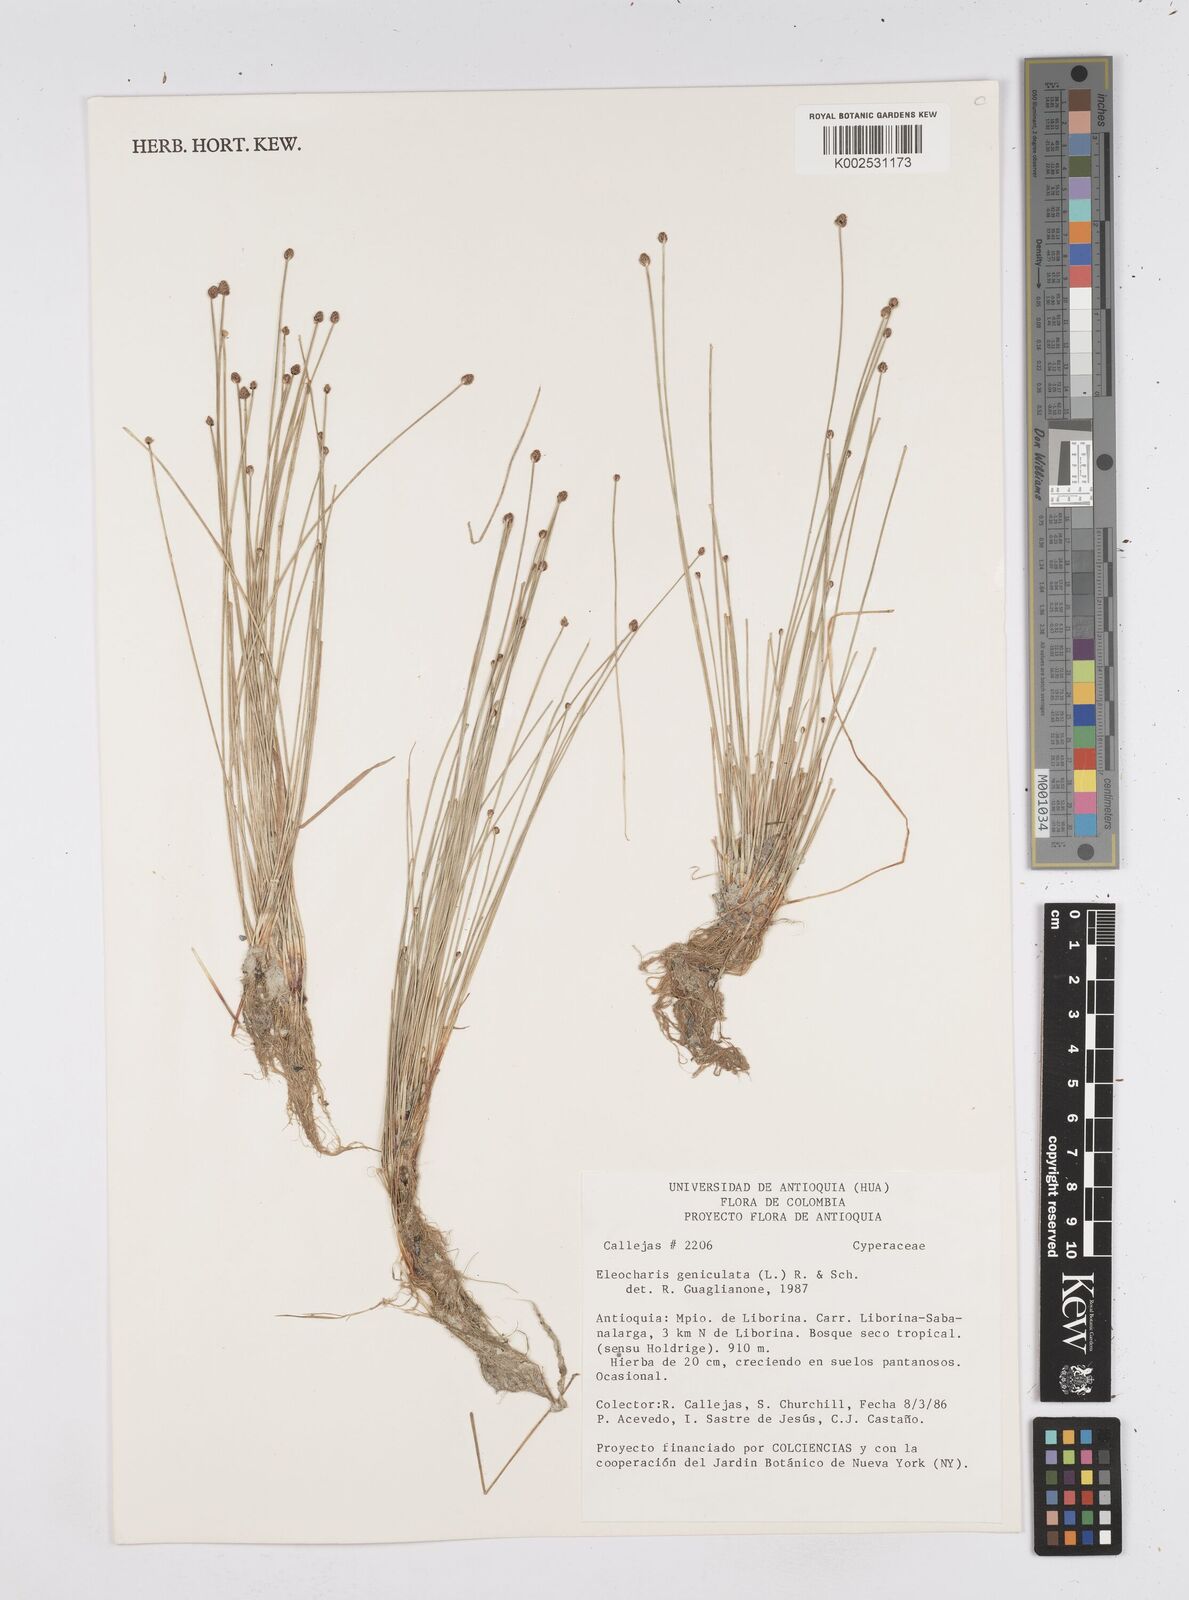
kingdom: Plantae
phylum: Tracheophyta
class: Liliopsida
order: Poales
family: Cyperaceae
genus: Eleocharis
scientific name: Eleocharis geniculata
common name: Canada spikesedge
